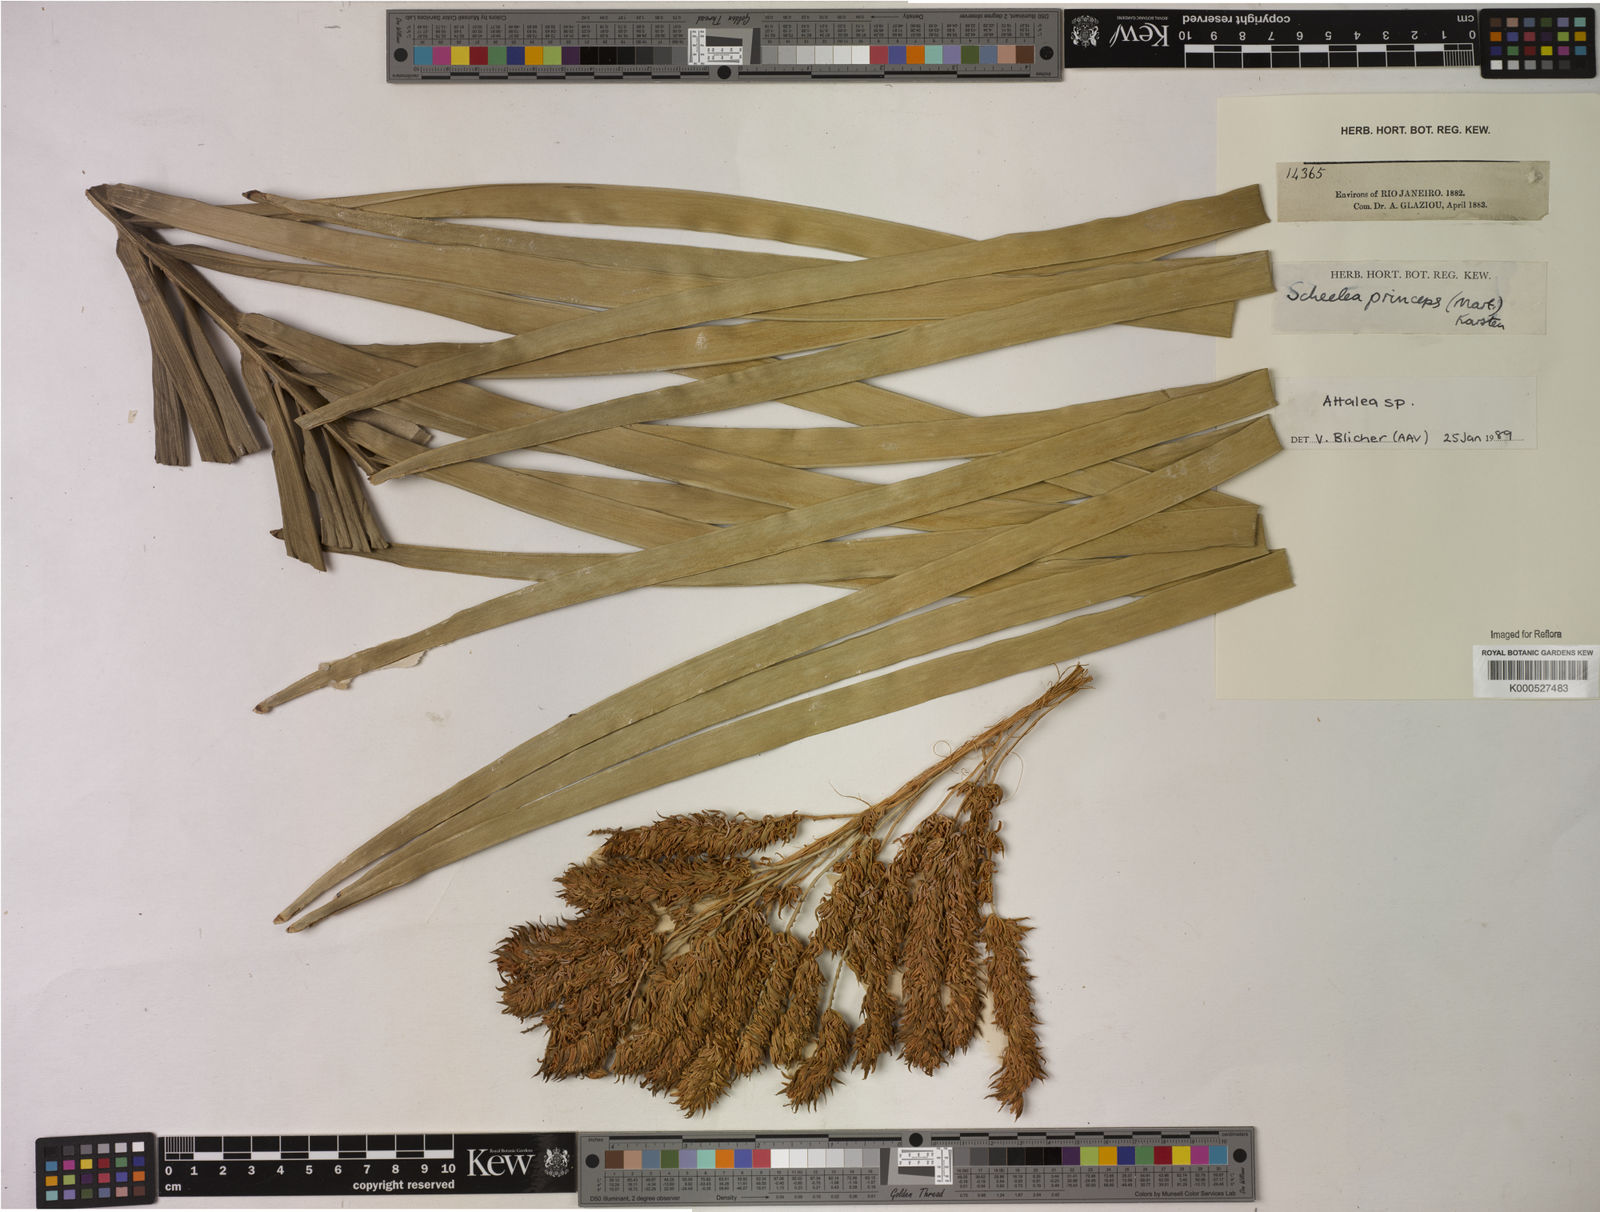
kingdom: Plantae
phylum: Tracheophyta
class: Liliopsida
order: Arecales
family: Arecaceae
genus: Attalea
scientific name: Attalea
